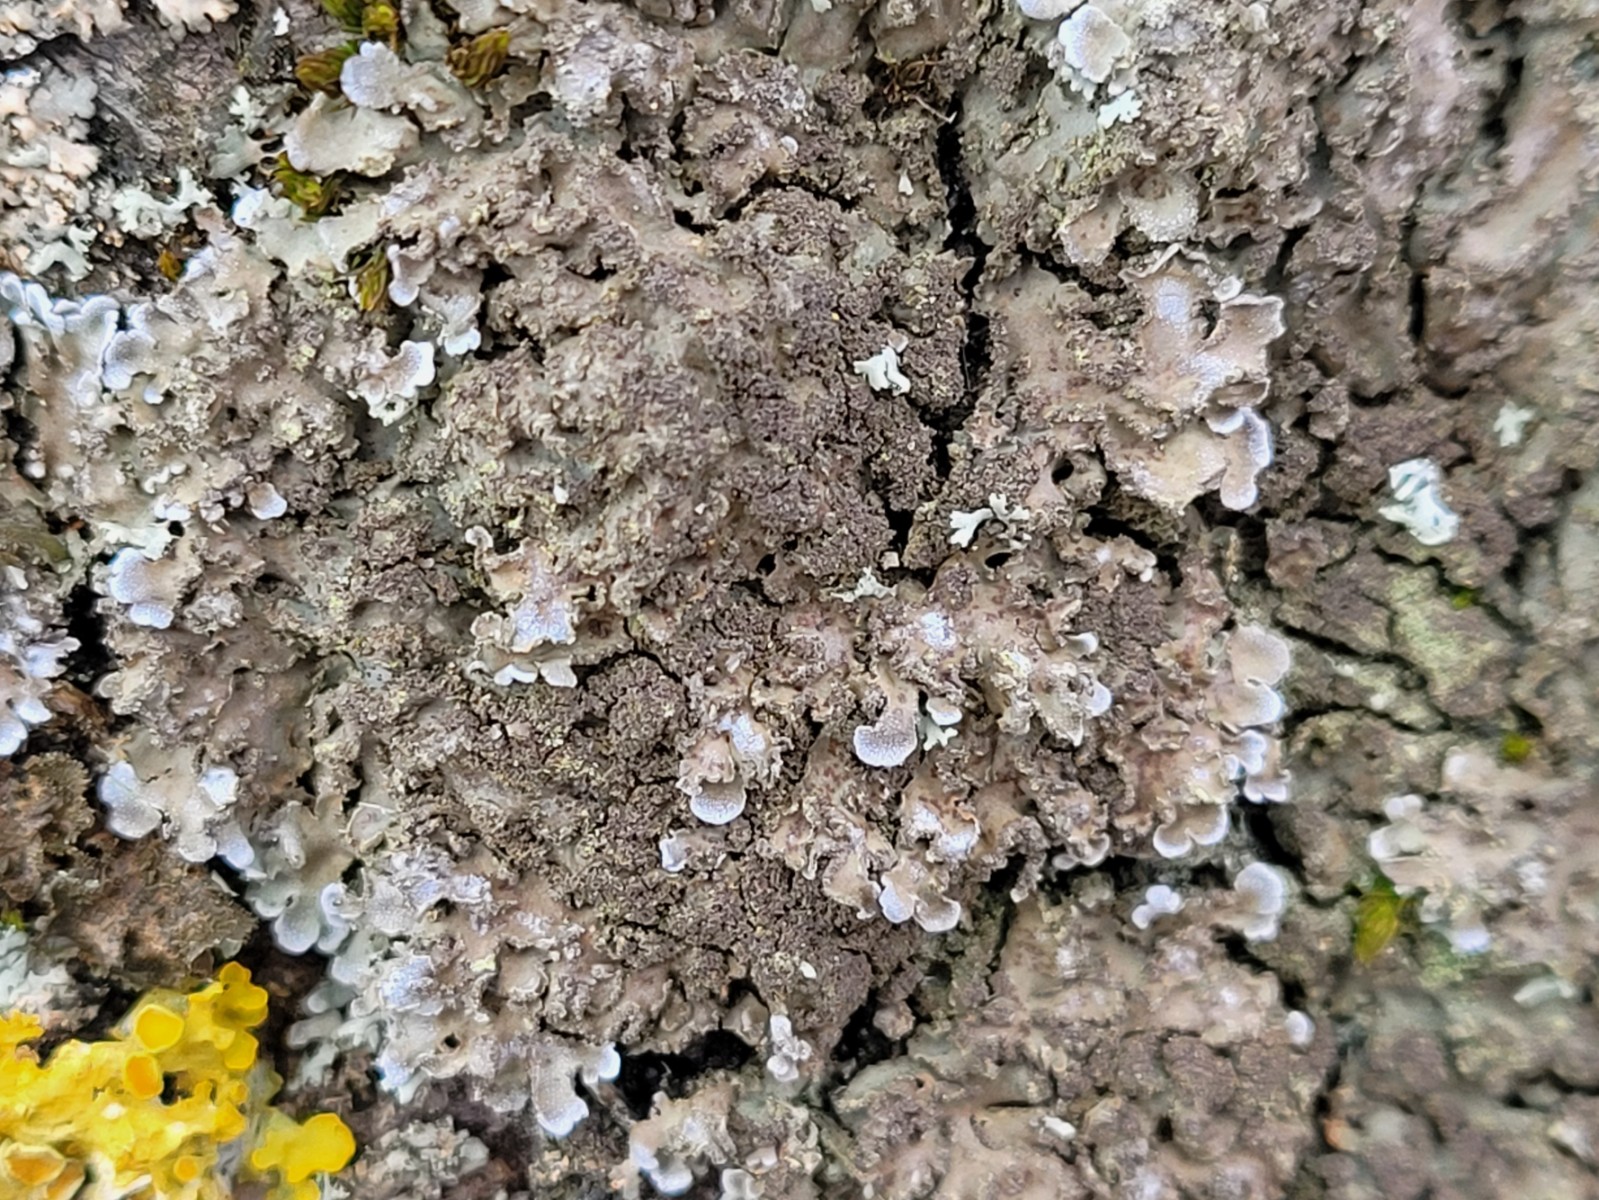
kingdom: Fungi
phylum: Ascomycota
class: Lecanoromycetes
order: Caliciales
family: Physciaceae
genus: Physconia
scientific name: Physconia enteroxantha
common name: grynet dugrosetlav
